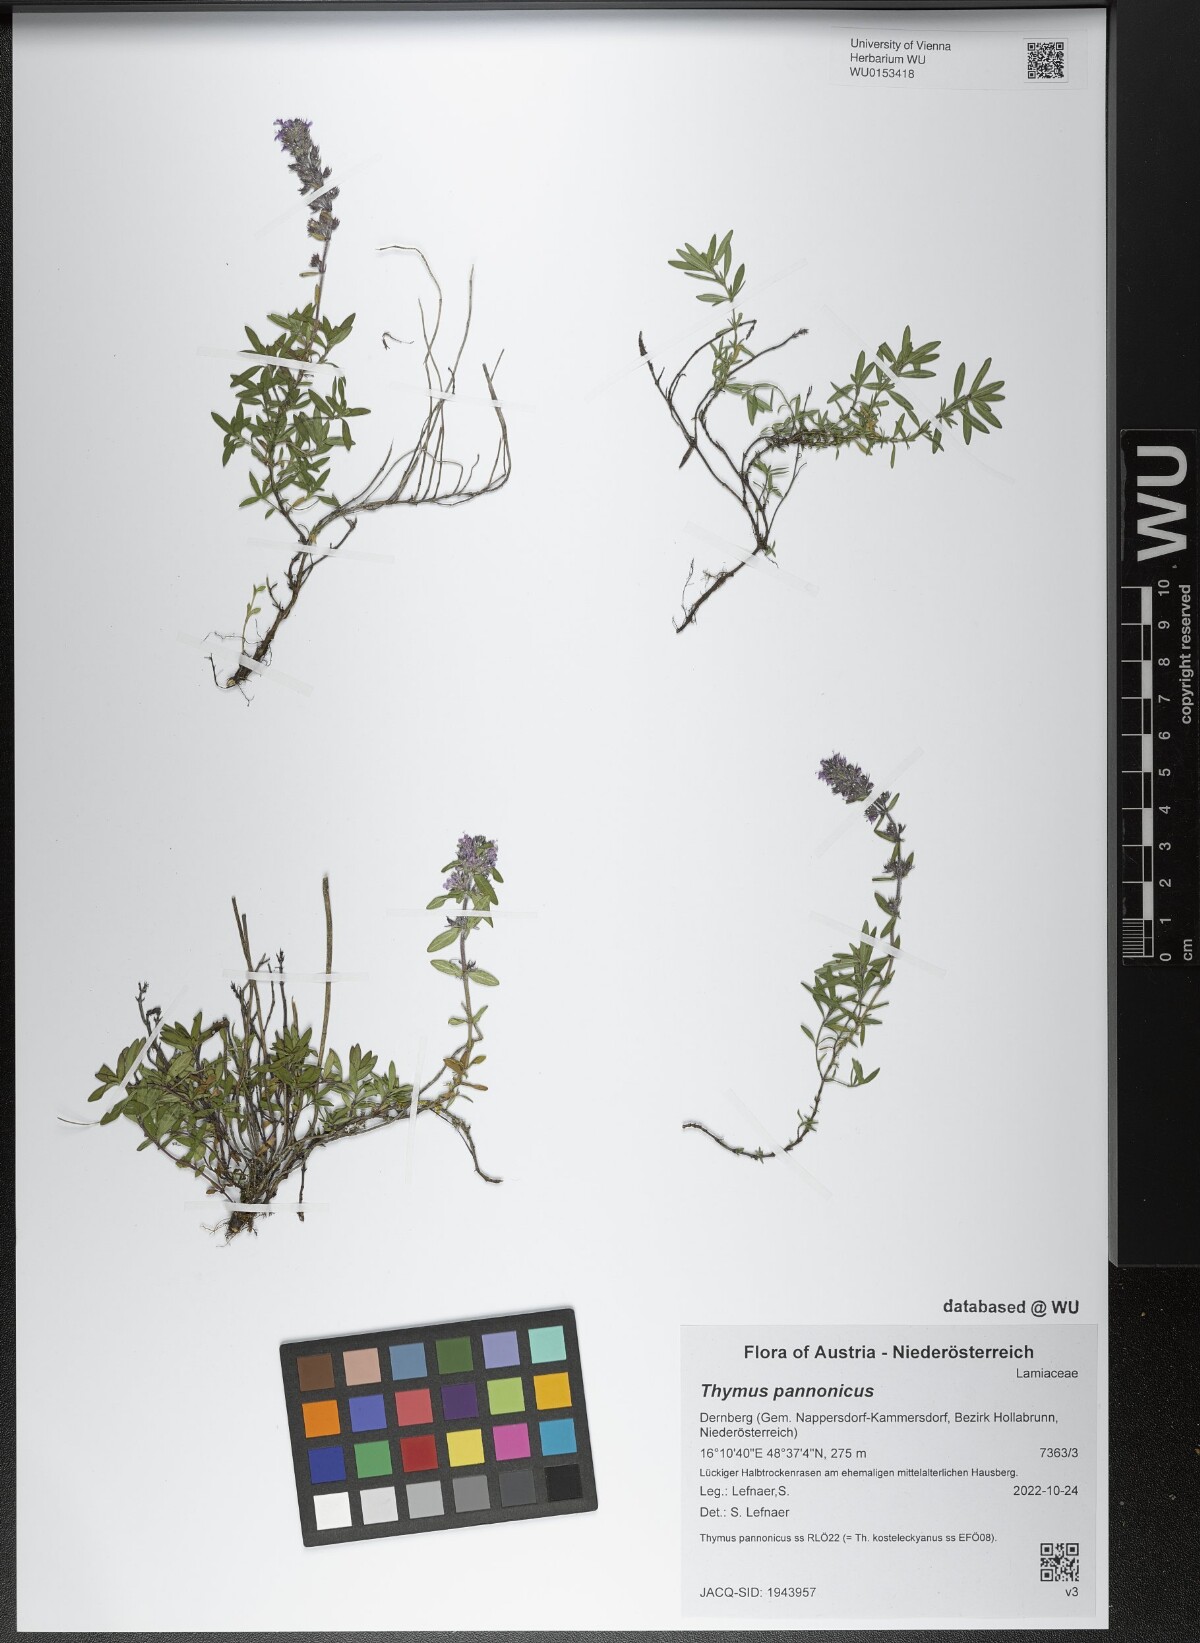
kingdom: Plantae
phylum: Tracheophyta
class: Magnoliopsida
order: Lamiales
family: Lamiaceae
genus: Thymus
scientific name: Thymus pannonicus
